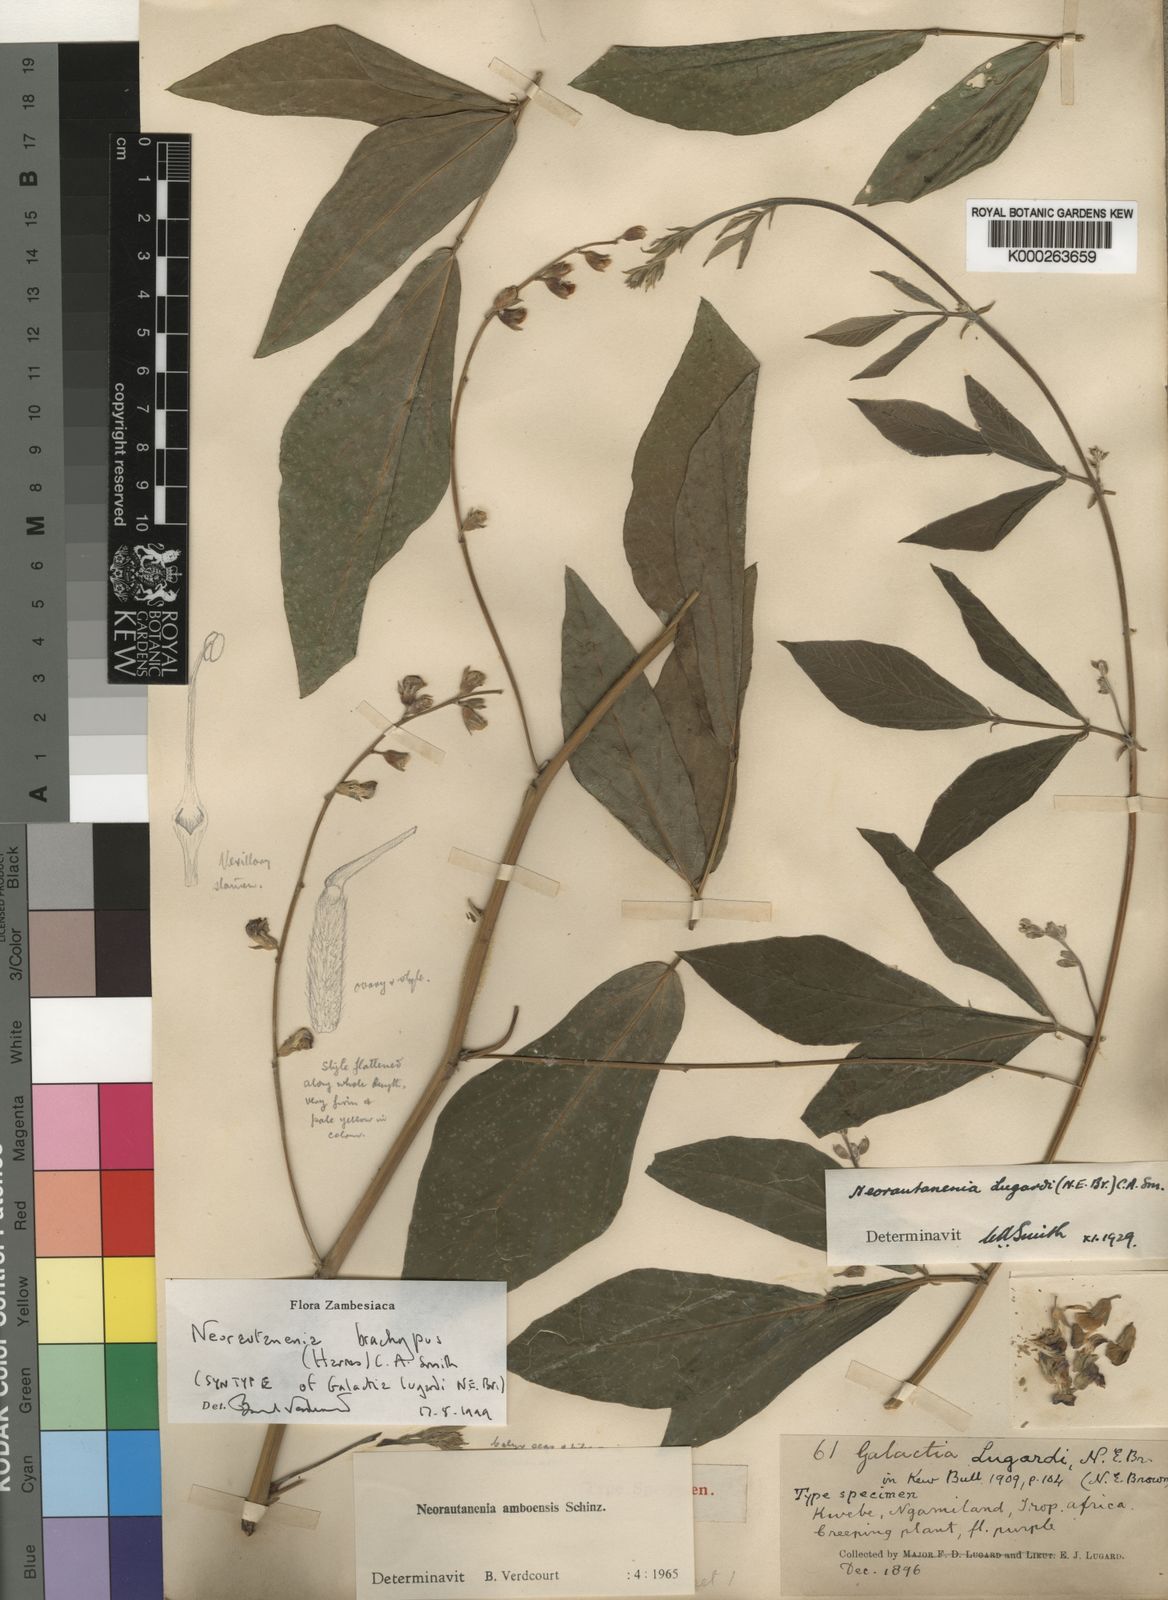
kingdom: Plantae
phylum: Tracheophyta
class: Magnoliopsida
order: Fabales
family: Fabaceae
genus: Neorautanenia
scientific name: Neorautanenia
